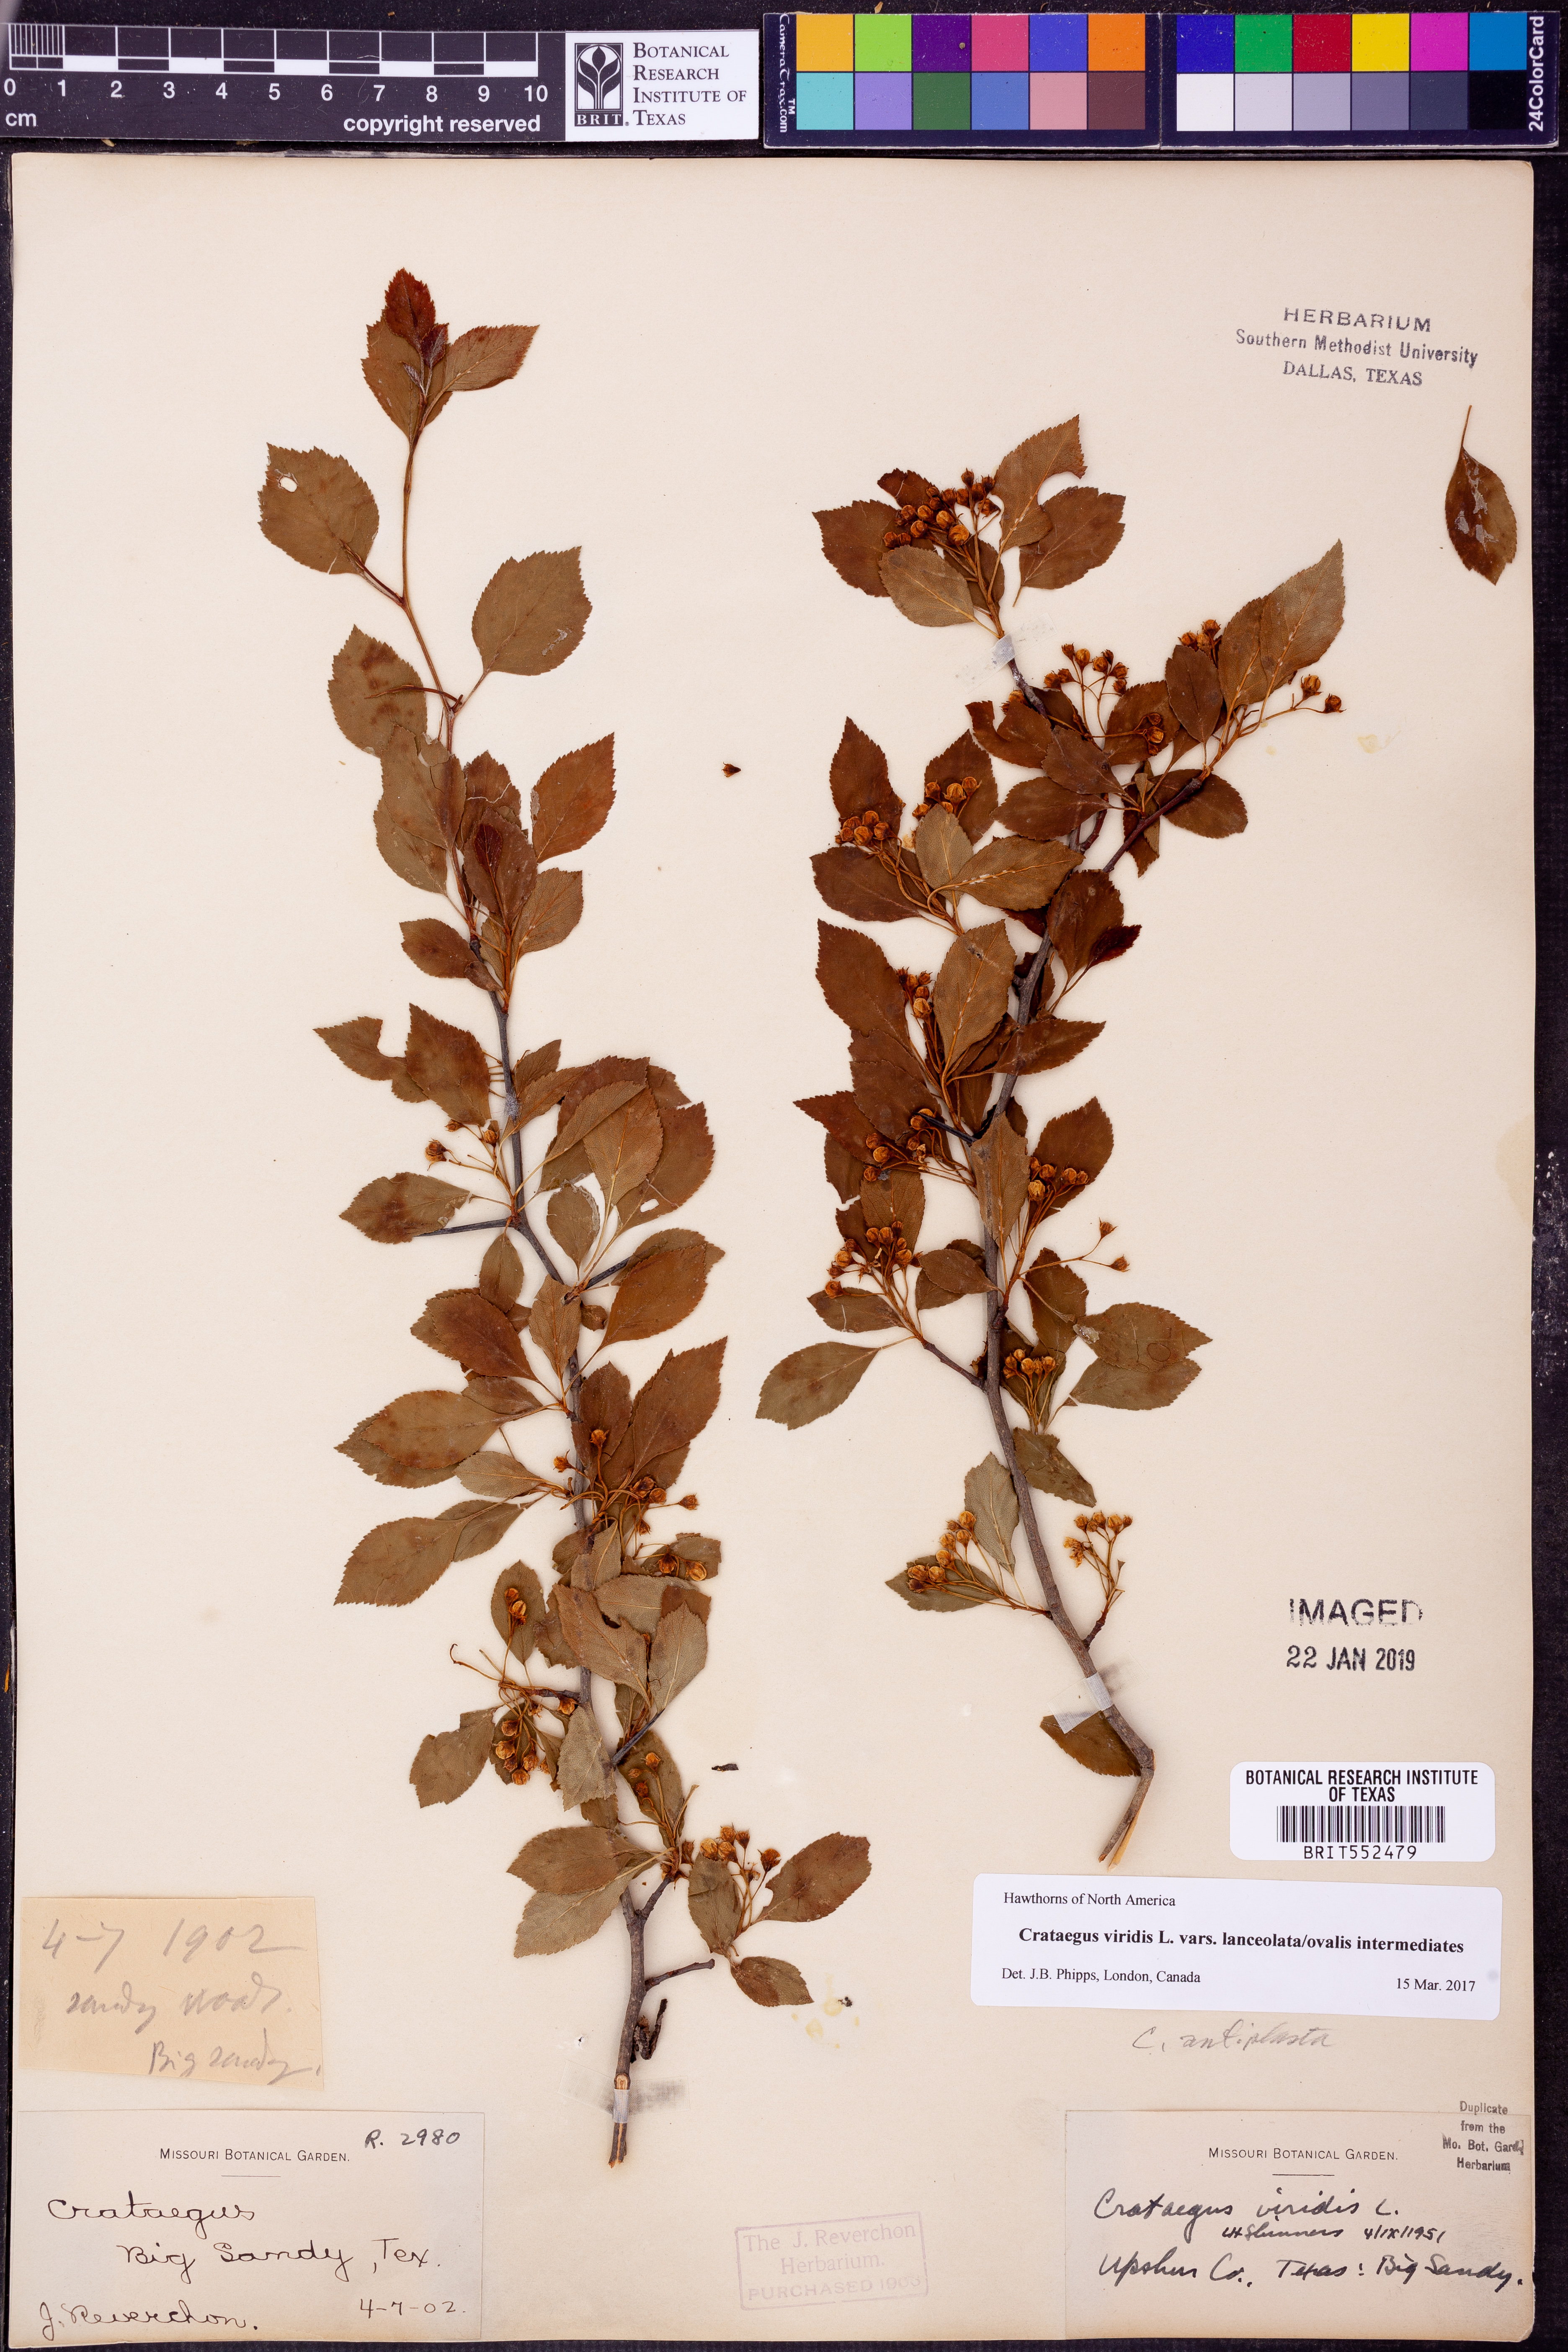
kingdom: Plantae
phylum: Tracheophyta
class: Magnoliopsida
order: Rosales
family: Rosaceae
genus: Crataegus
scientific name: Crataegus viridis
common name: Southernthorn
